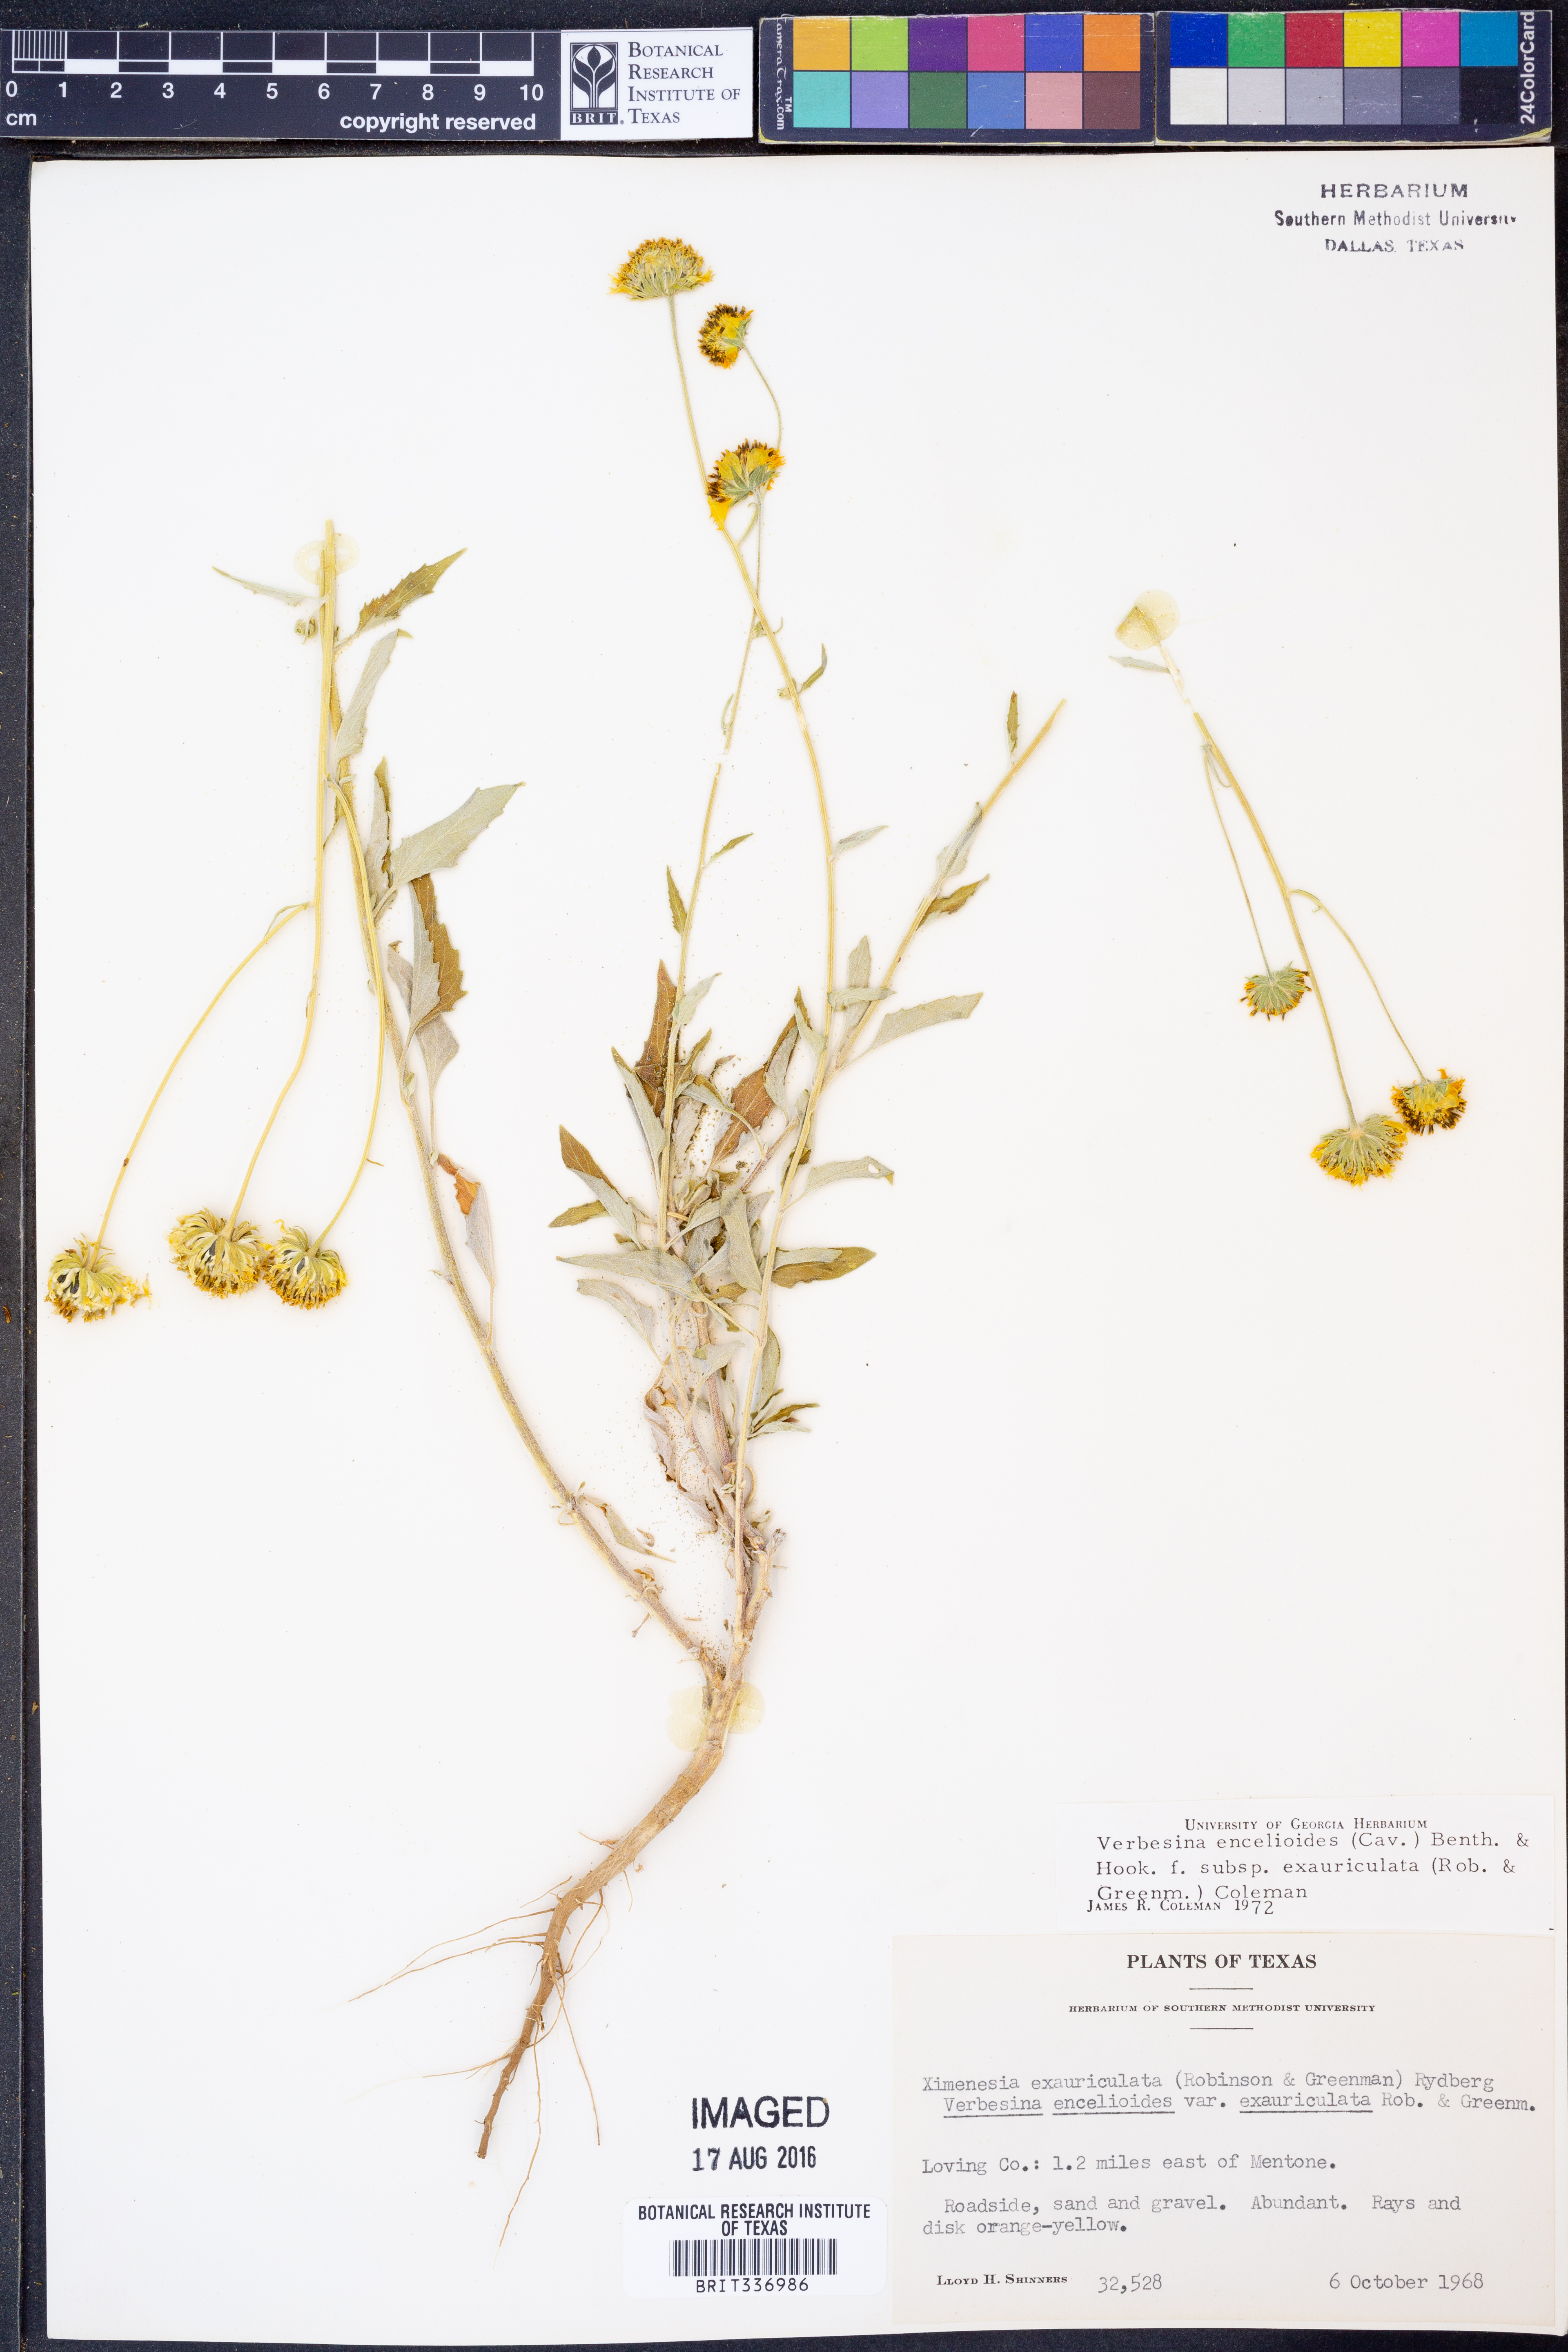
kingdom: Plantae
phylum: Tracheophyta
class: Magnoliopsida
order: Asterales
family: Asteraceae
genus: Verbesina
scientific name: Verbesina encelioides
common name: Golden crownbeard
